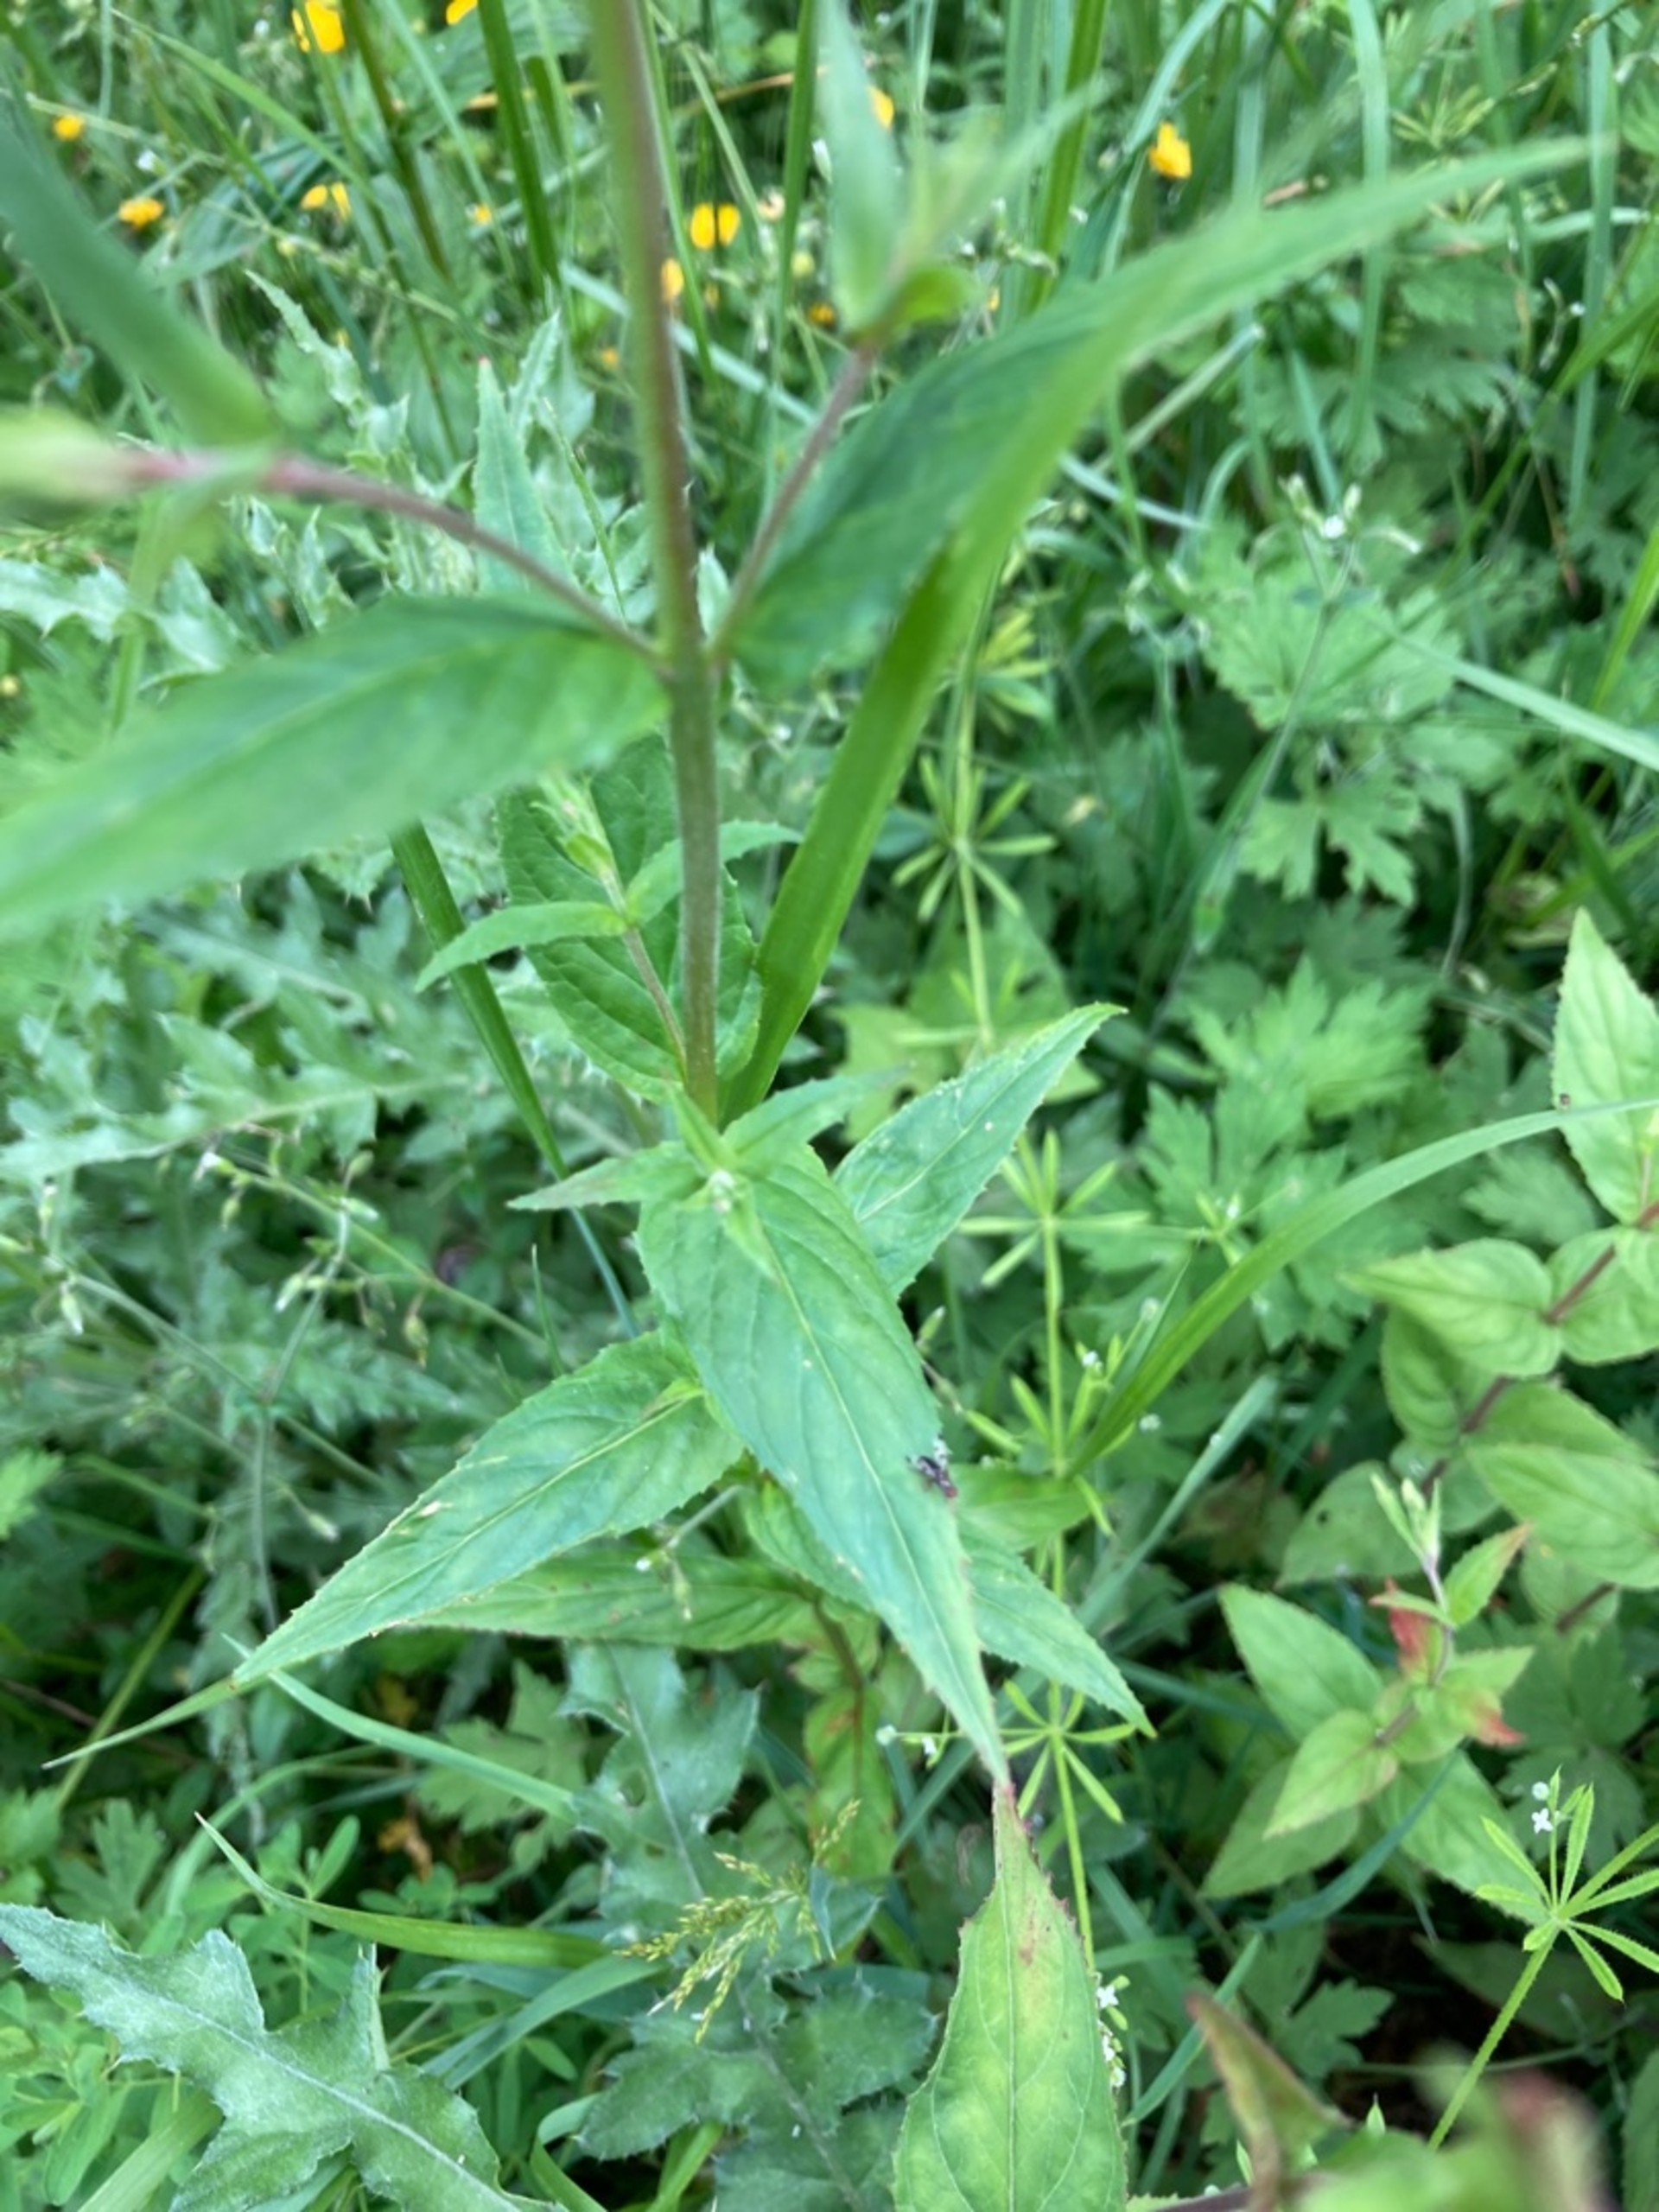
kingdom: Plantae
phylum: Tracheophyta
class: Magnoliopsida
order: Myrtales
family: Onagraceae
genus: Epilobium
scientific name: Epilobium parviflorum
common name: Dunet dueurt
